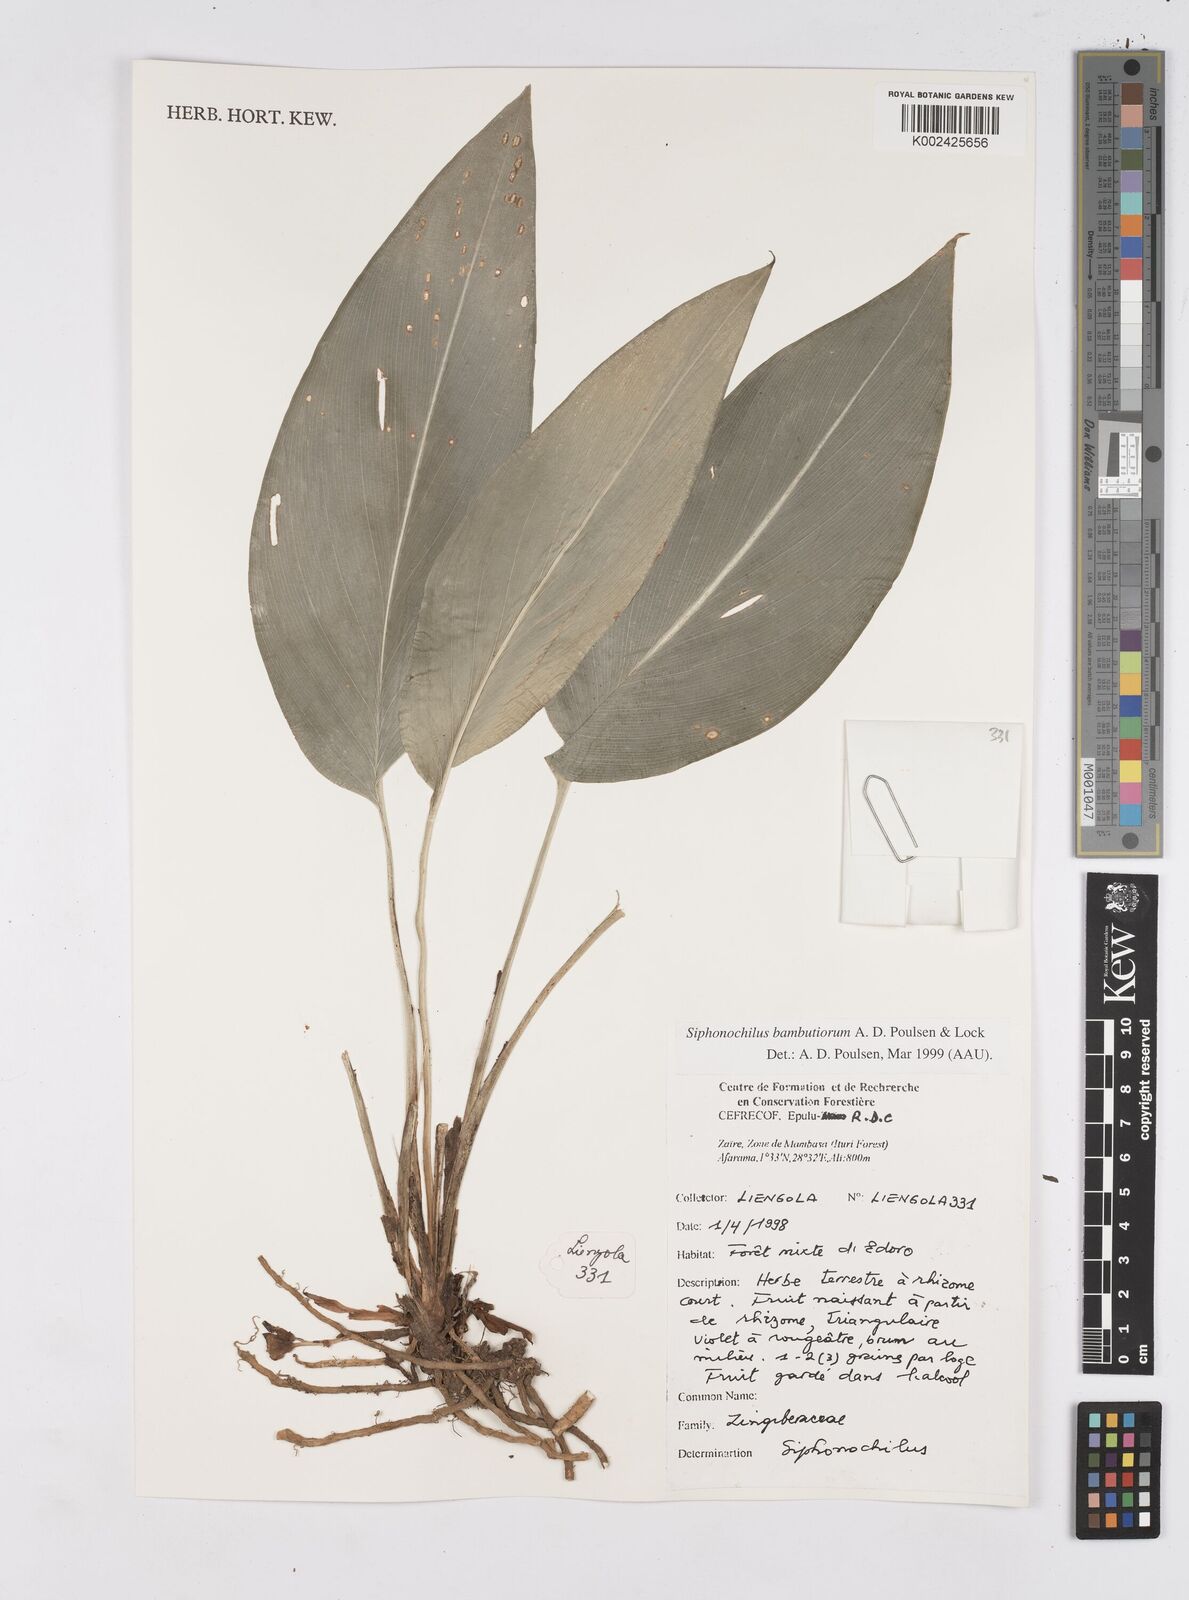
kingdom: Plantae
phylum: Tracheophyta
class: Liliopsida
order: Zingiberales
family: Zingiberaceae
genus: Siphonochilus
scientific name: Siphonochilus bambutiorum
